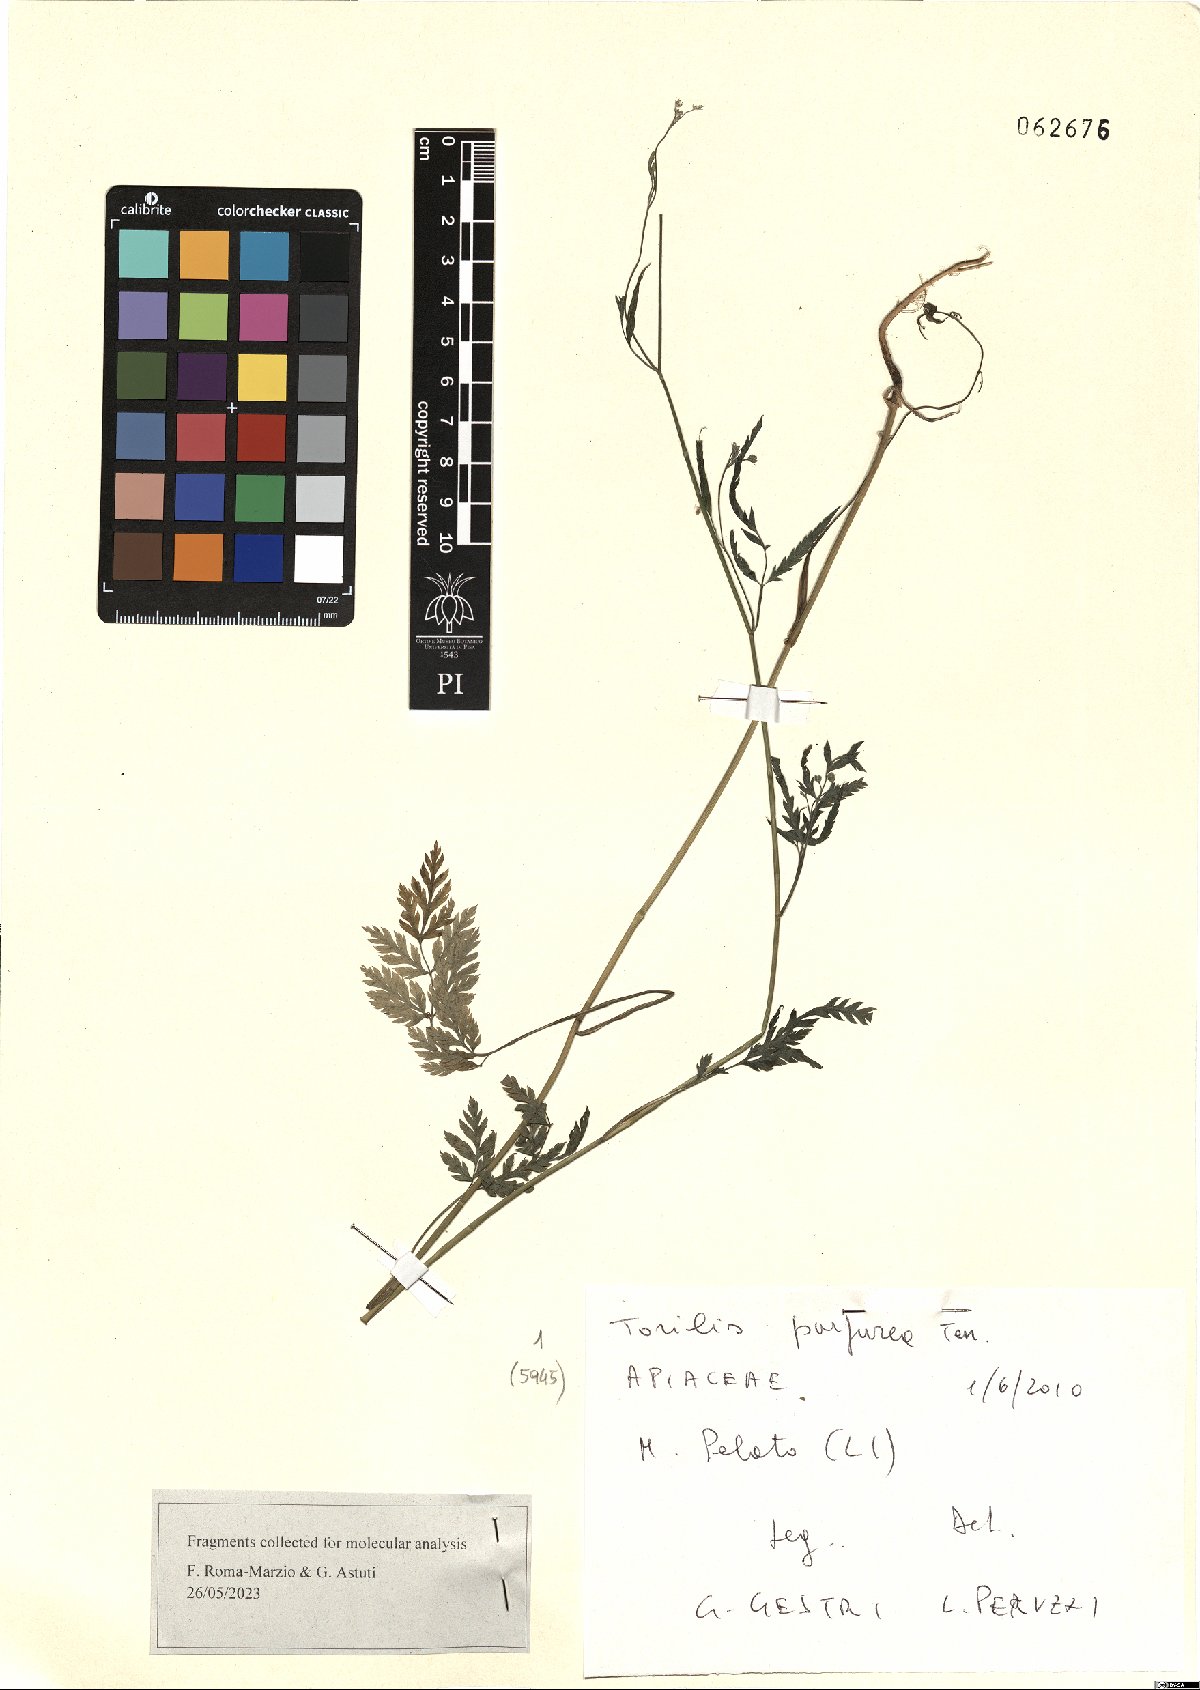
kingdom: Plantae
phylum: Tracheophyta
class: Magnoliopsida
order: Apiales
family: Apiaceae
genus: Torilis
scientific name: Torilis africana
